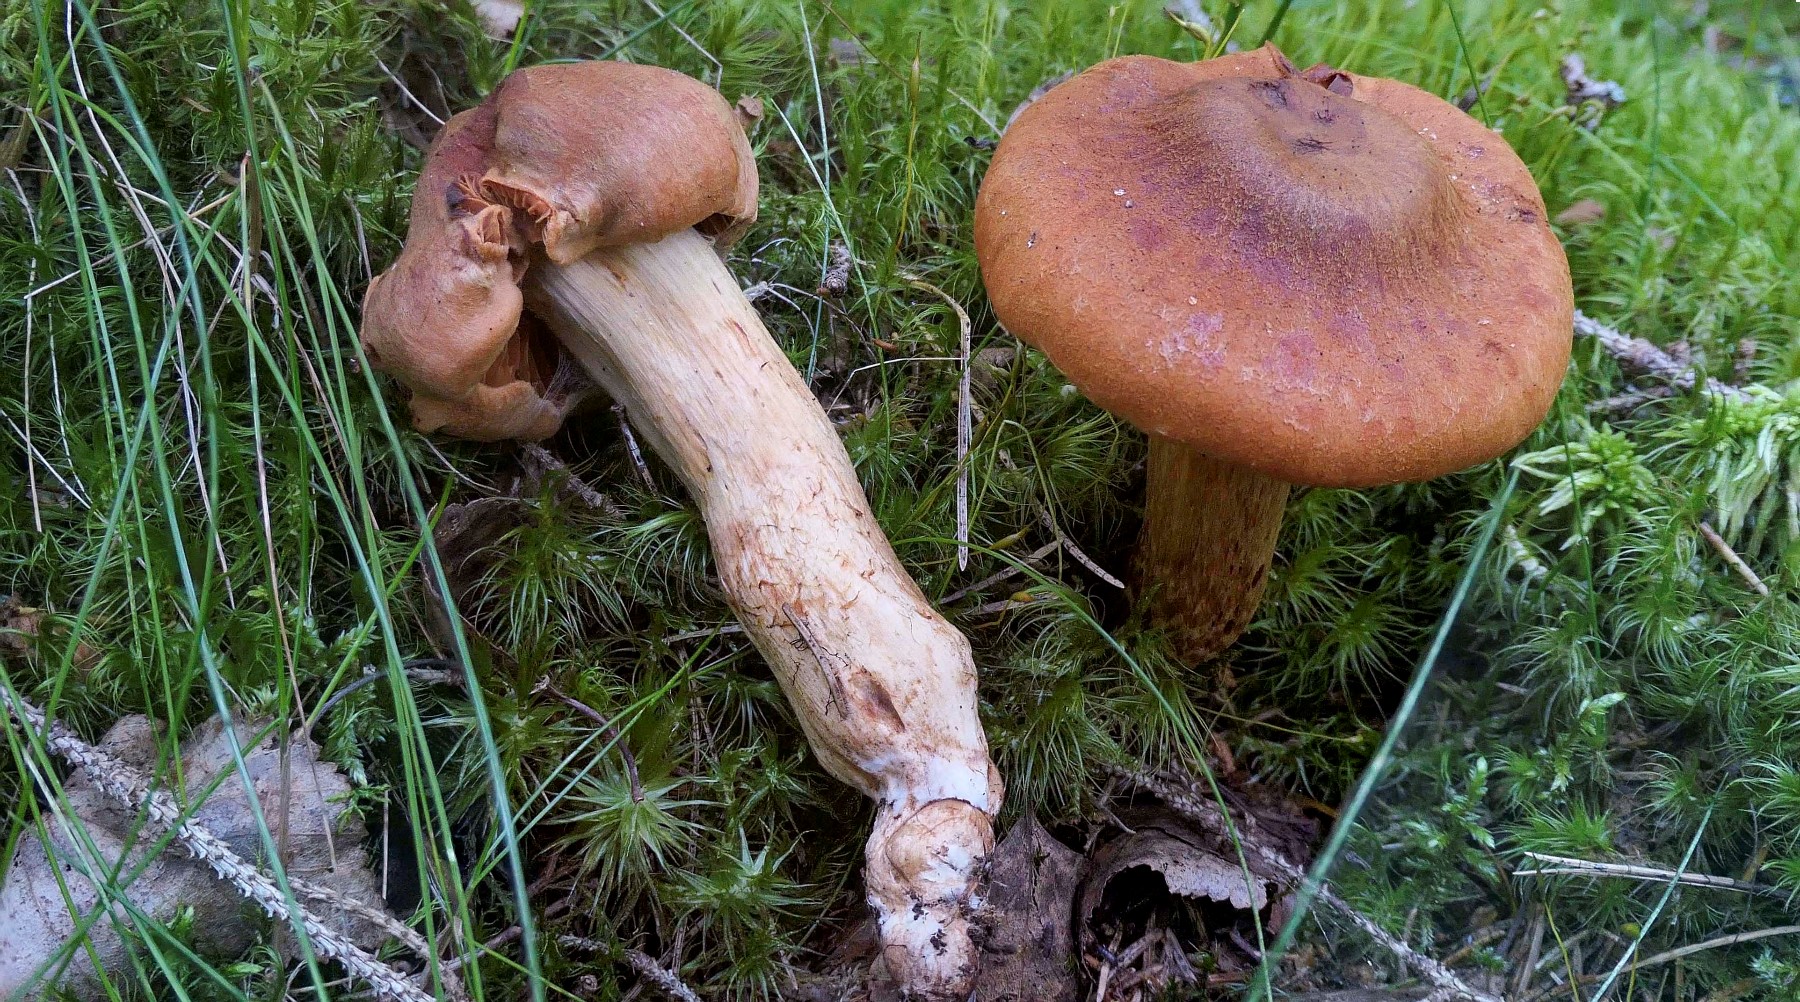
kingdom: Fungi
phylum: Basidiomycota
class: Agaricomycetes
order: Agaricales
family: Cortinariaceae
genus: Cortinarius
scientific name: Cortinarius rubellus
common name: puklet gift-slørhat
